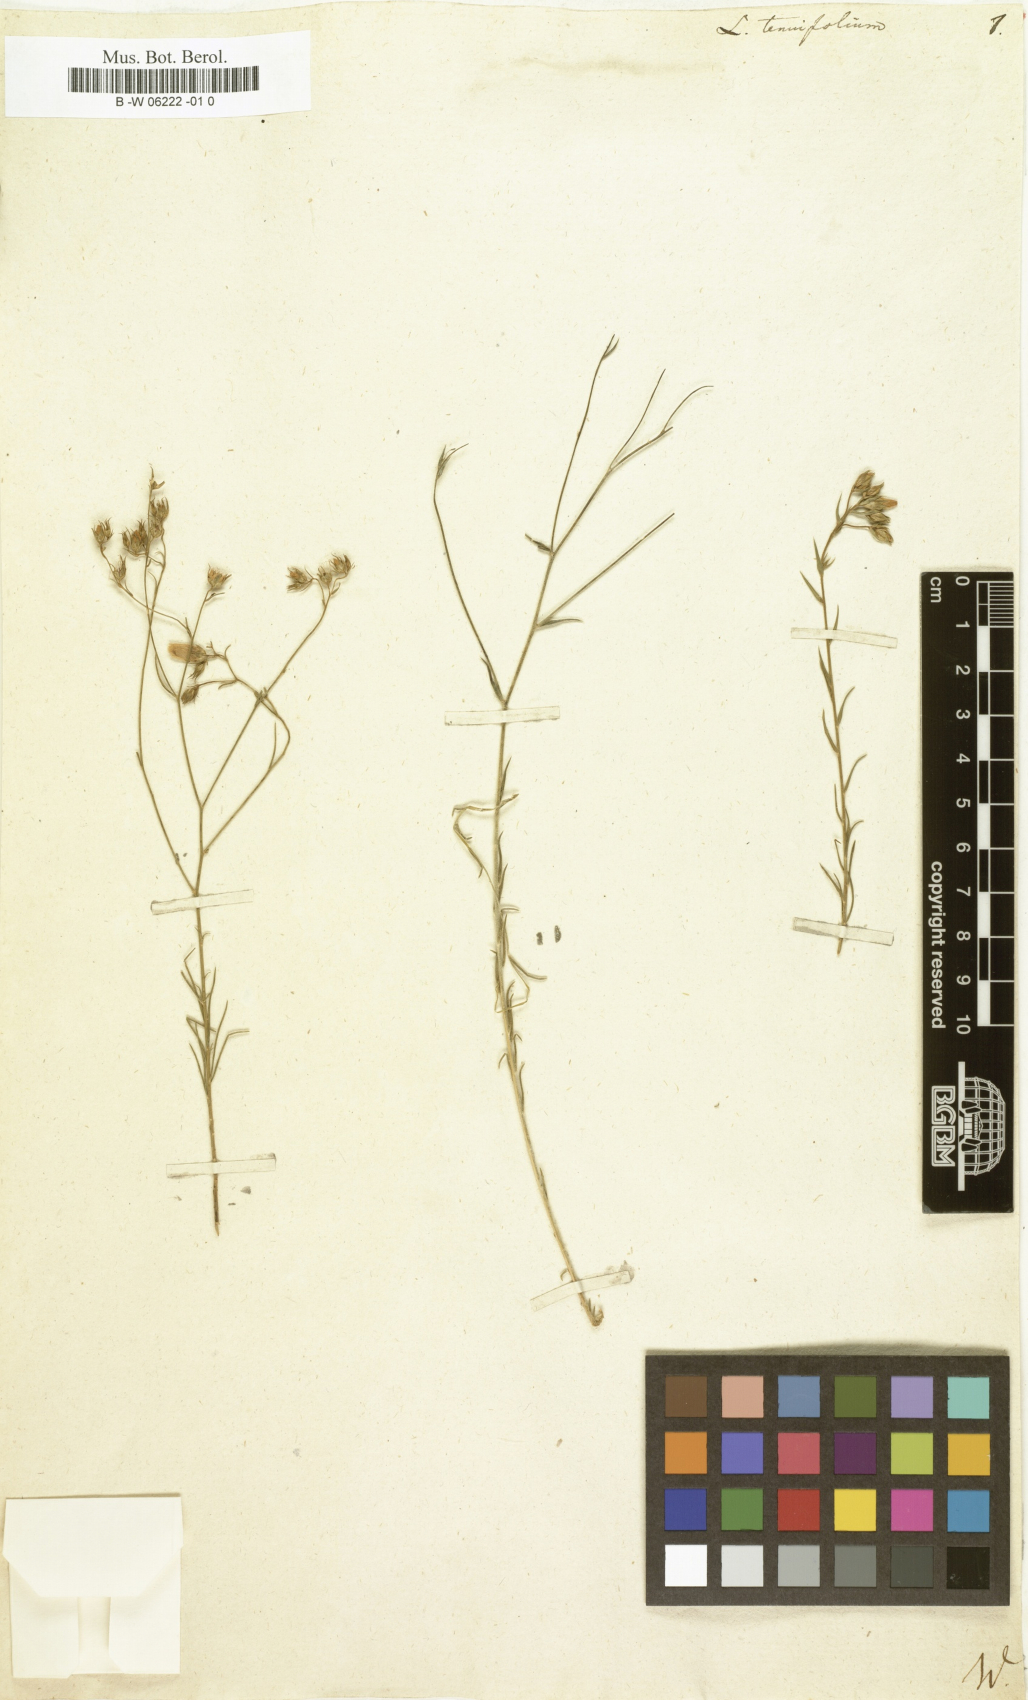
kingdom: Plantae
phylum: Tracheophyta
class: Magnoliopsida
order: Malpighiales
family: Linaceae
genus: Linum
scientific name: Linum tenuifolium
